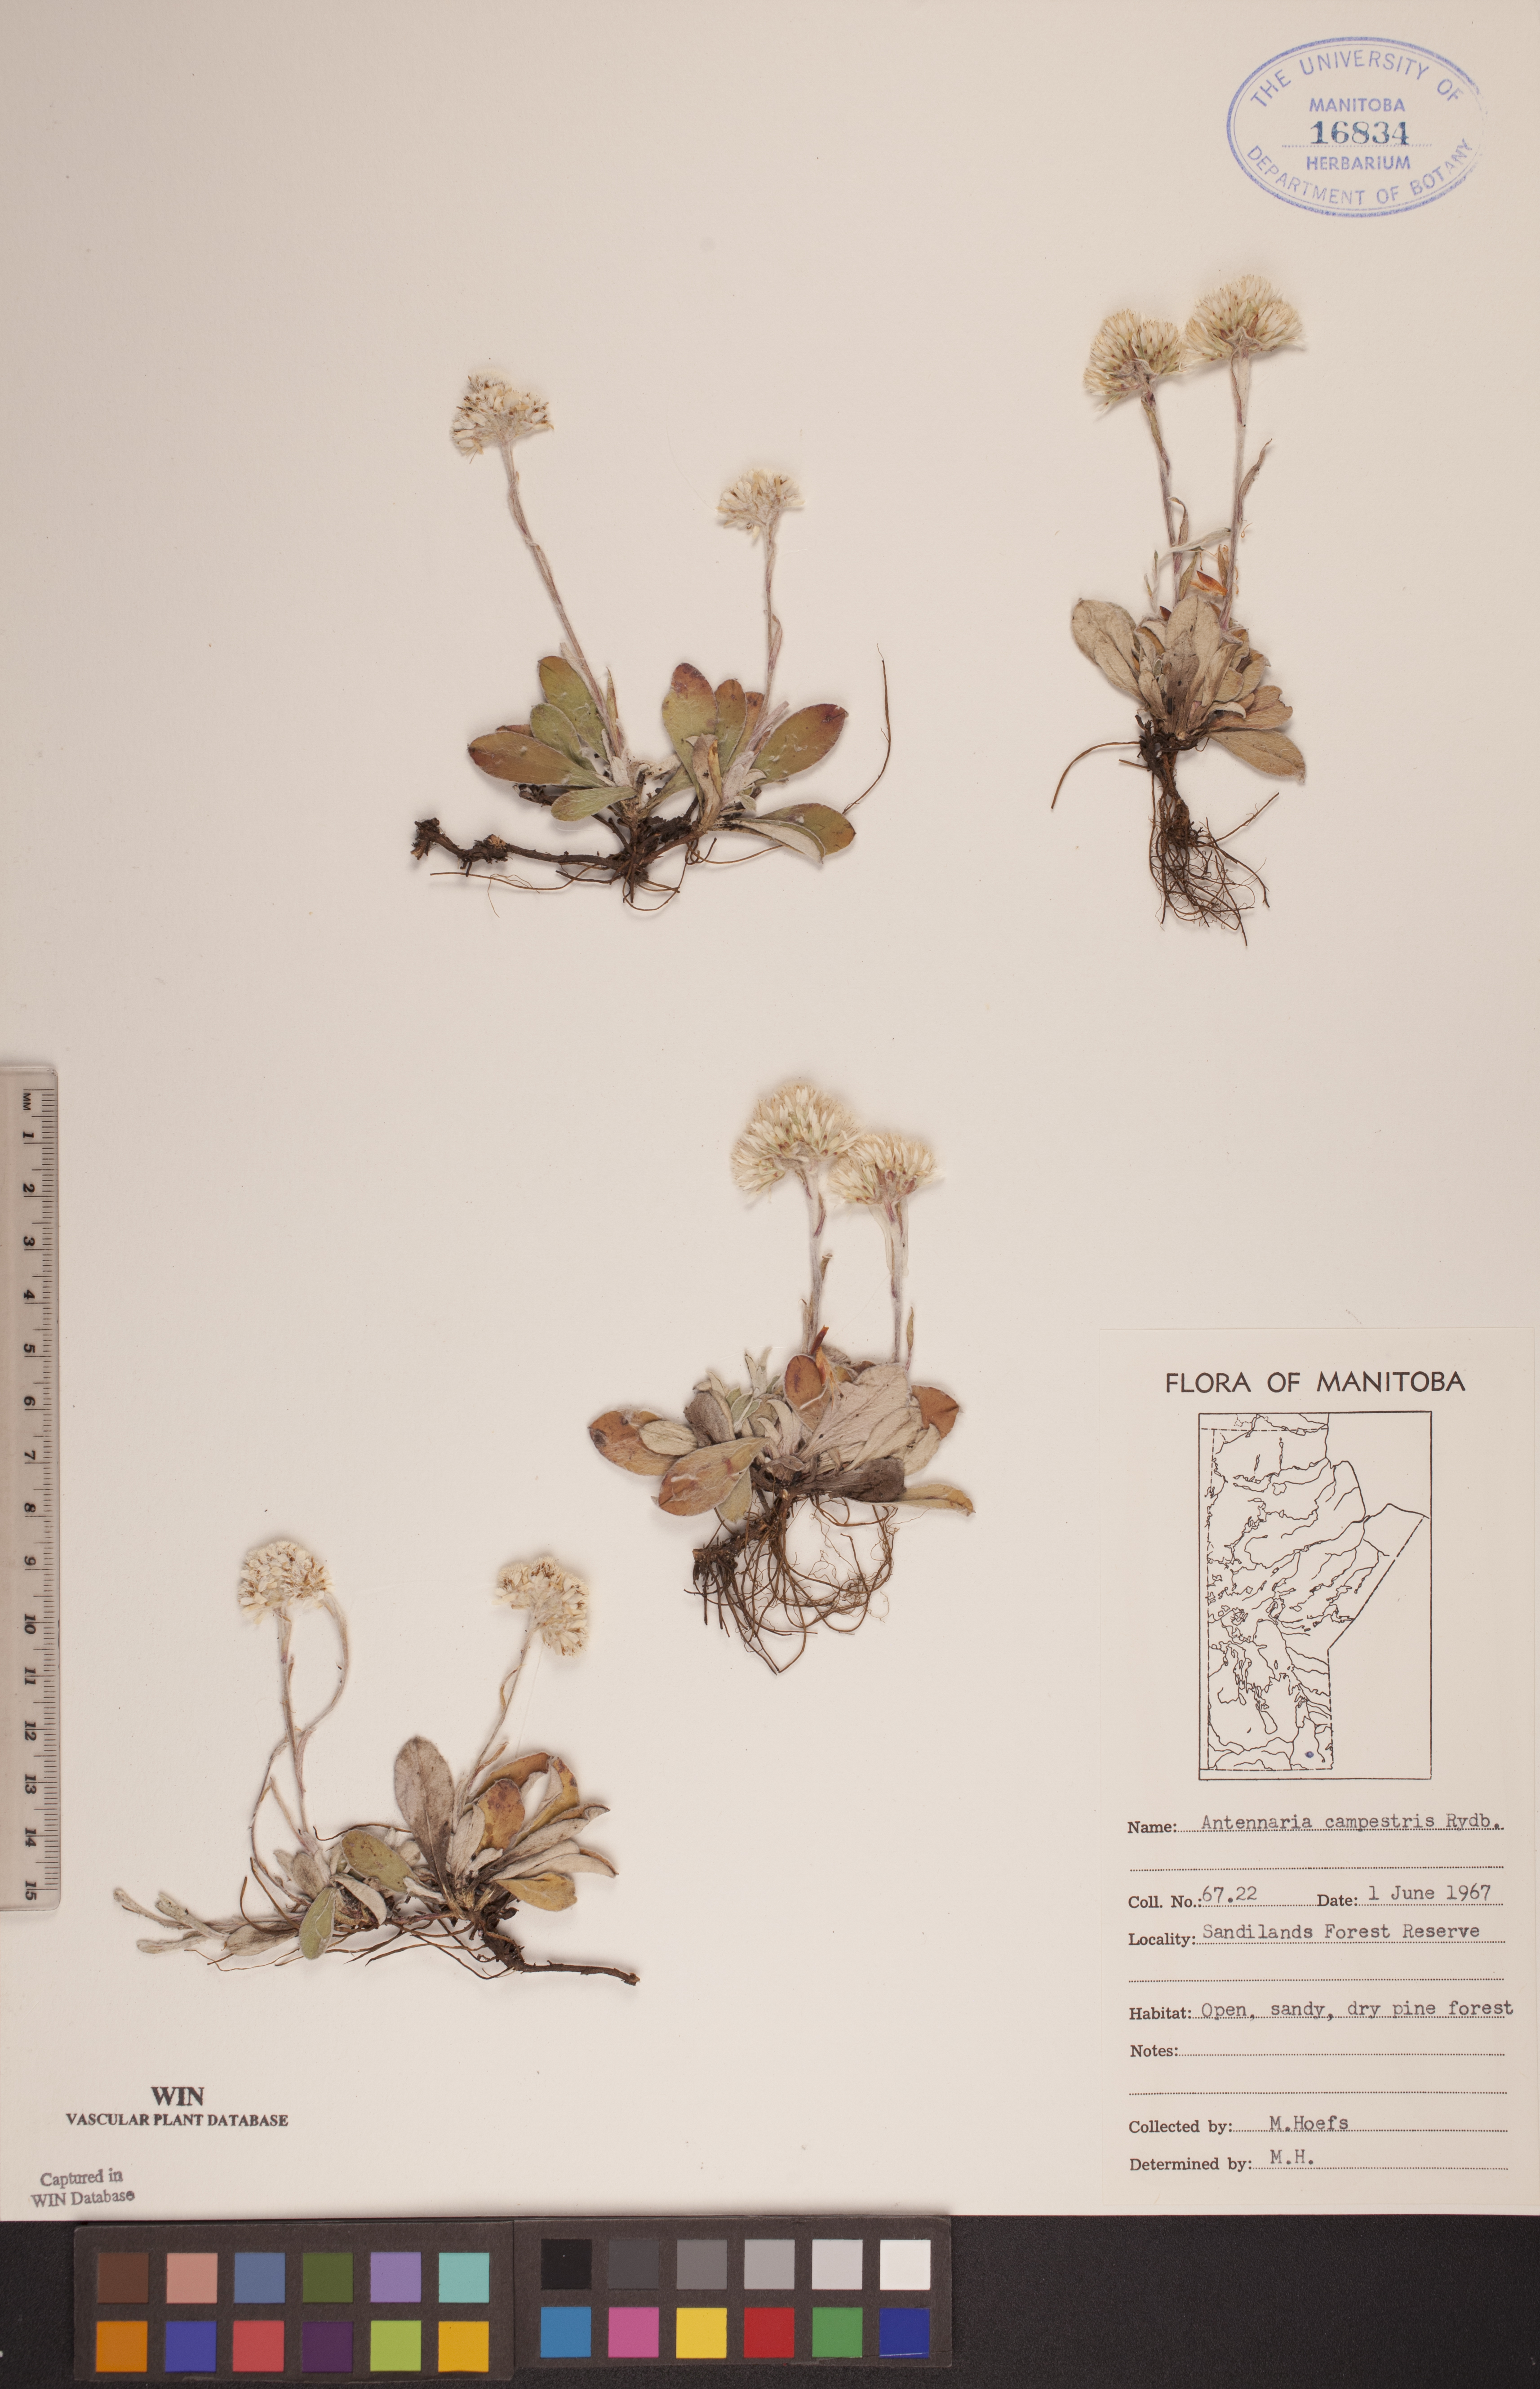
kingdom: Plantae
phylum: Tracheophyta
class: Magnoliopsida
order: Asterales
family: Asteraceae
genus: Antennaria
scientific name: Antennaria neglecta
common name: Field pussytoes
